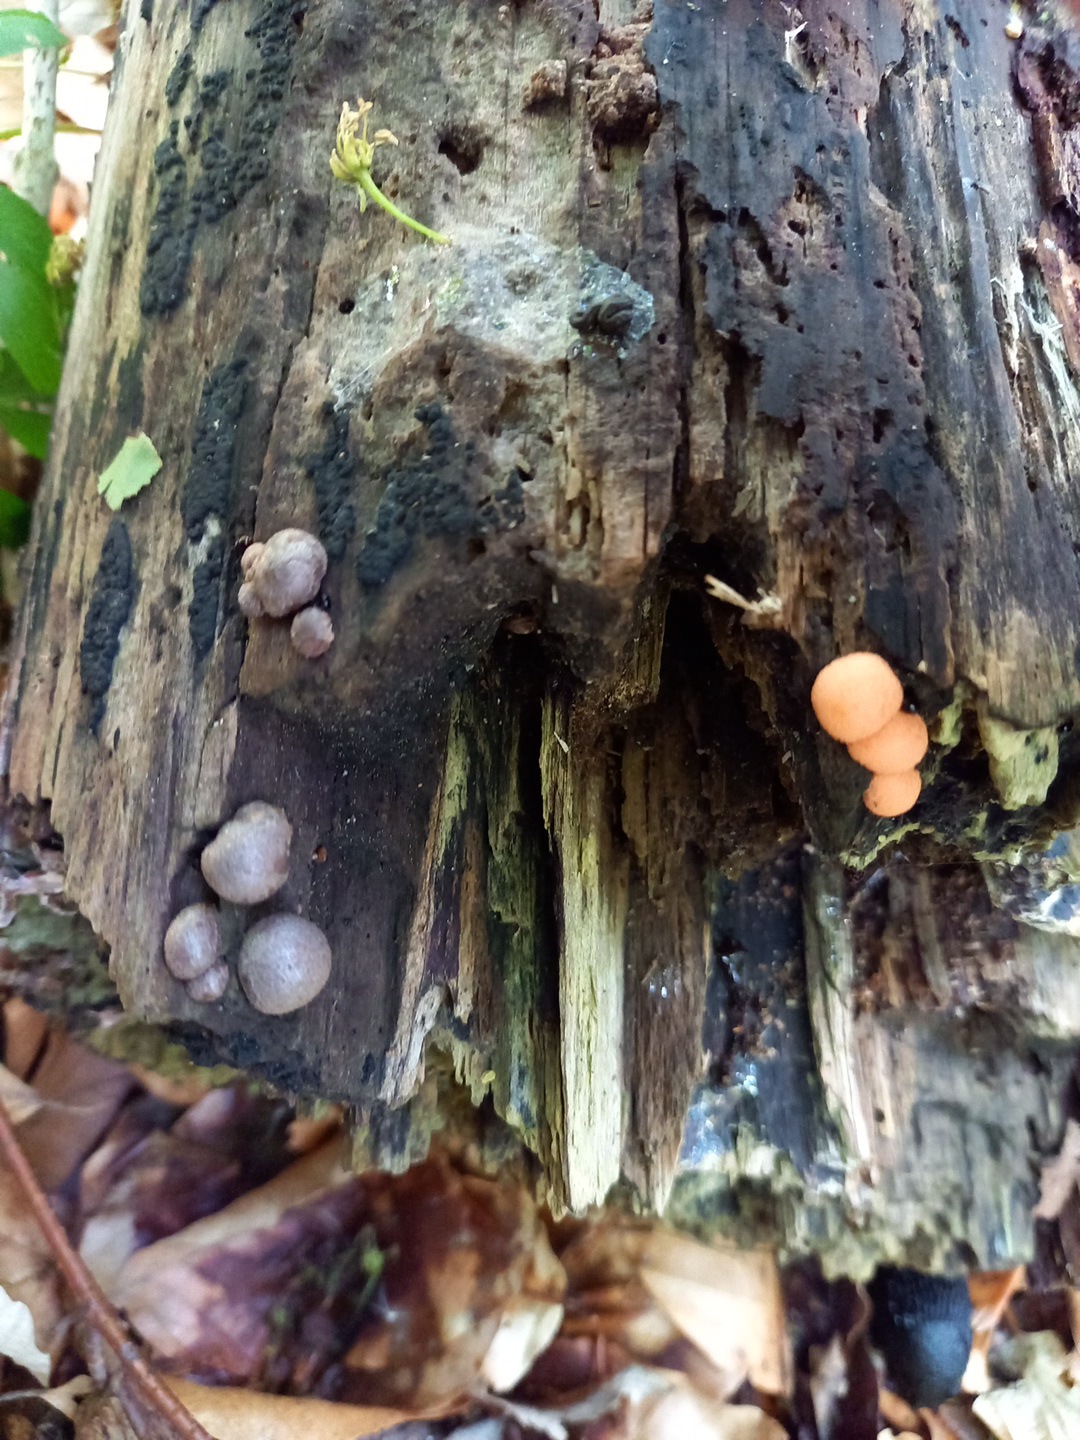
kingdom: Protozoa
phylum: Mycetozoa
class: Myxomycetes
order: Cribrariales
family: Tubiferaceae
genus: Lycogala
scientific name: Lycogala epidendrum
